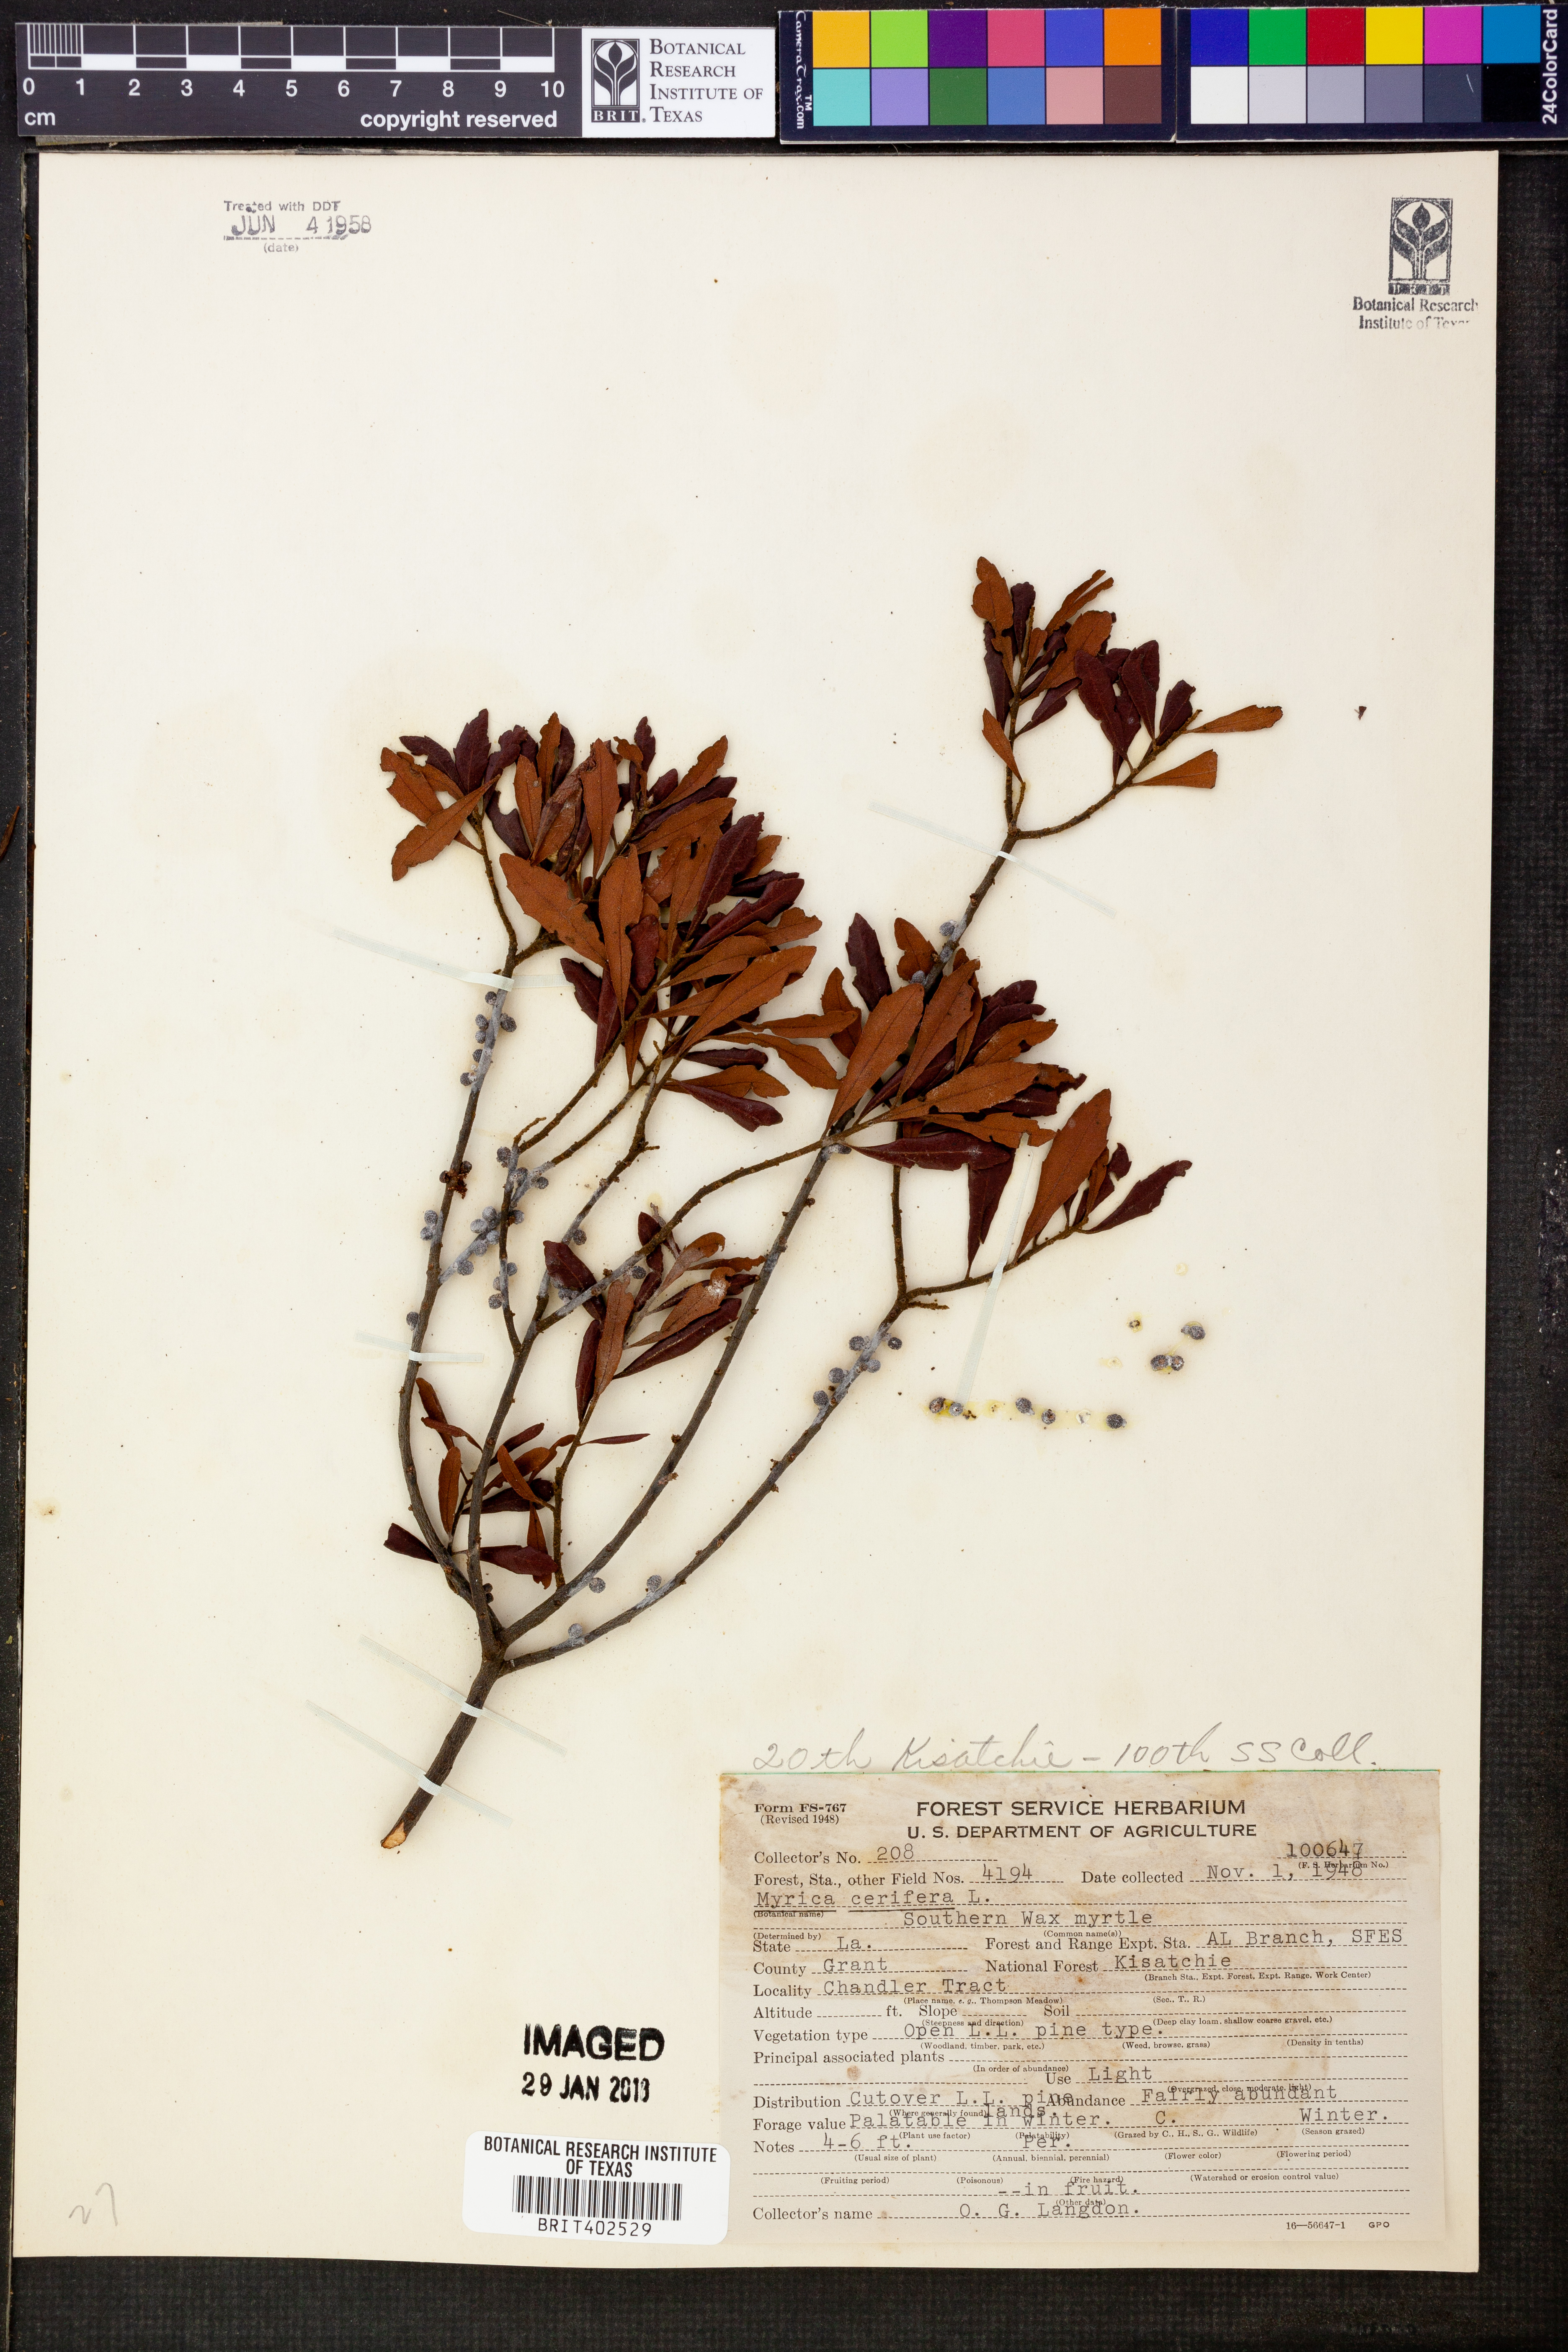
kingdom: Plantae
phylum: Tracheophyta
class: Magnoliopsida
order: Fagales
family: Myricaceae
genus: Morella
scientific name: Morella cerifera
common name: Wax myrtle
